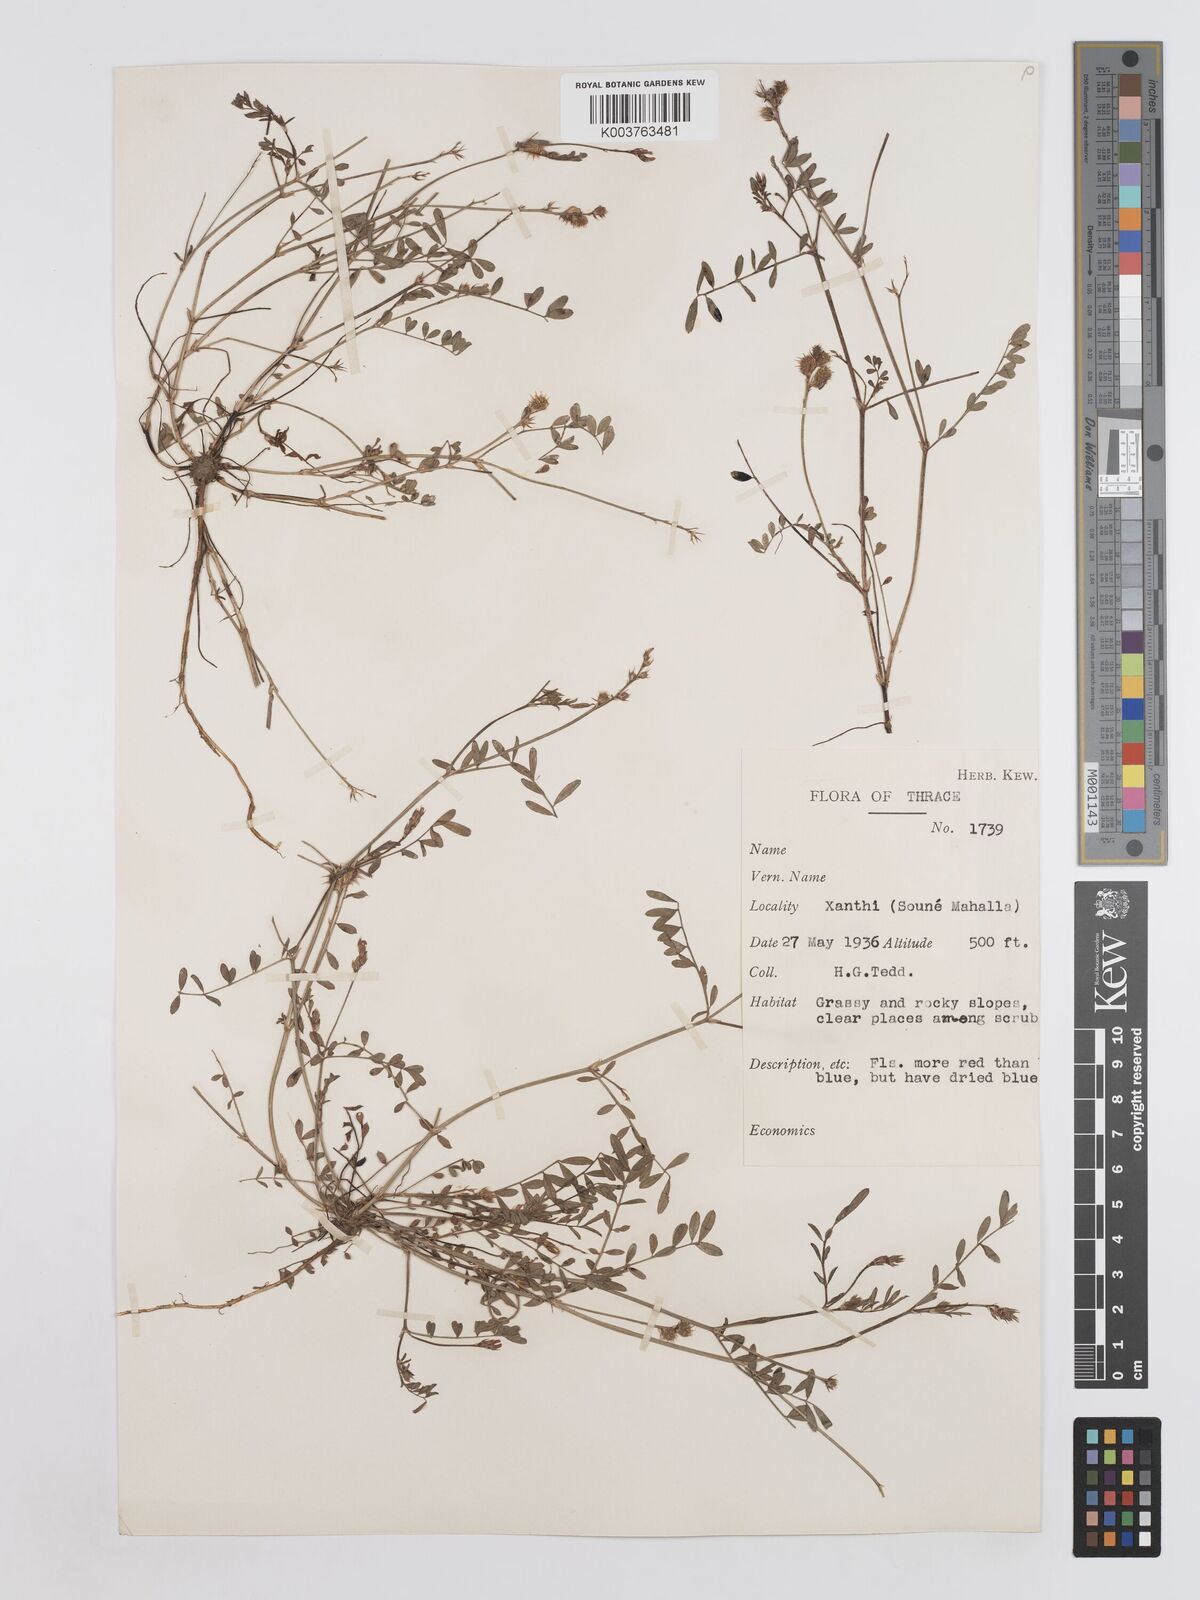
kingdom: Plantae
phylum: Tracheophyta
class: Magnoliopsida
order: Fabales
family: Fabaceae
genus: Onobrychis
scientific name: Onobrychis caput-galli
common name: Cockscomb sainfoin
